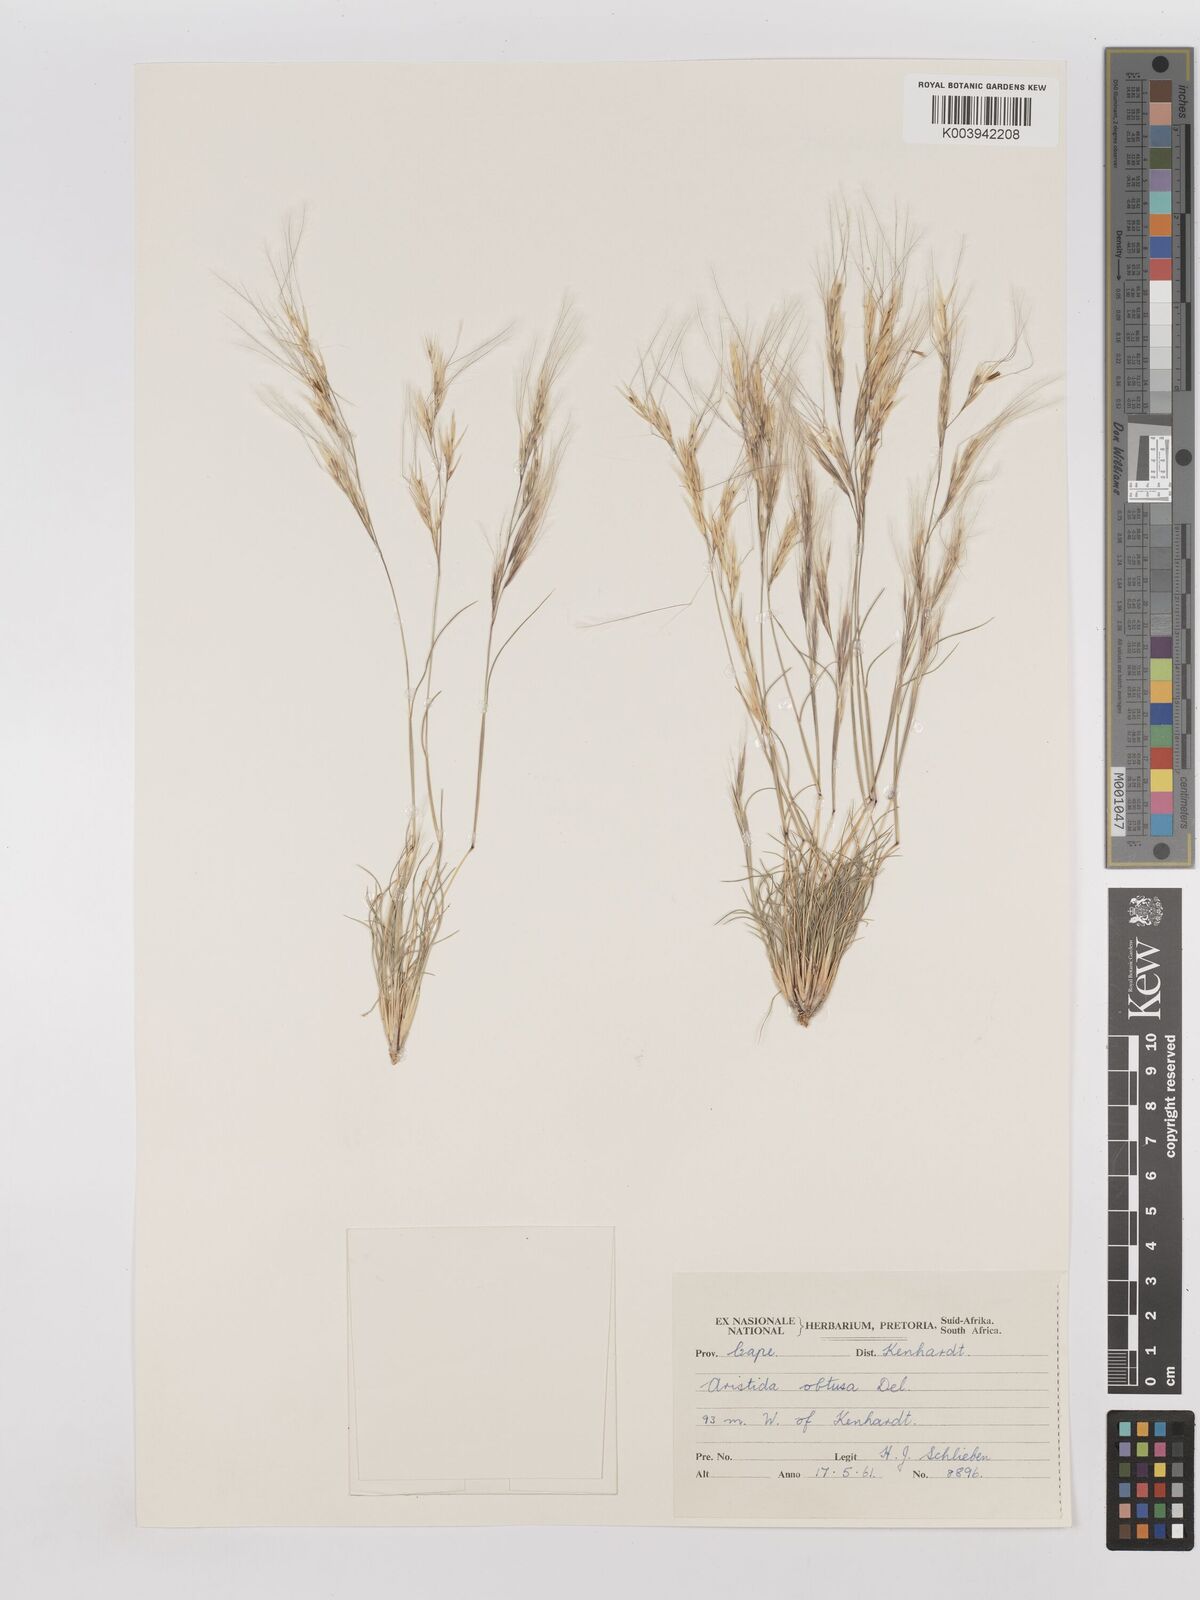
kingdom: Plantae
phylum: Tracheophyta
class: Liliopsida
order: Poales
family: Poaceae
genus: Stipagrostis
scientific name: Stipagrostis obtusa
